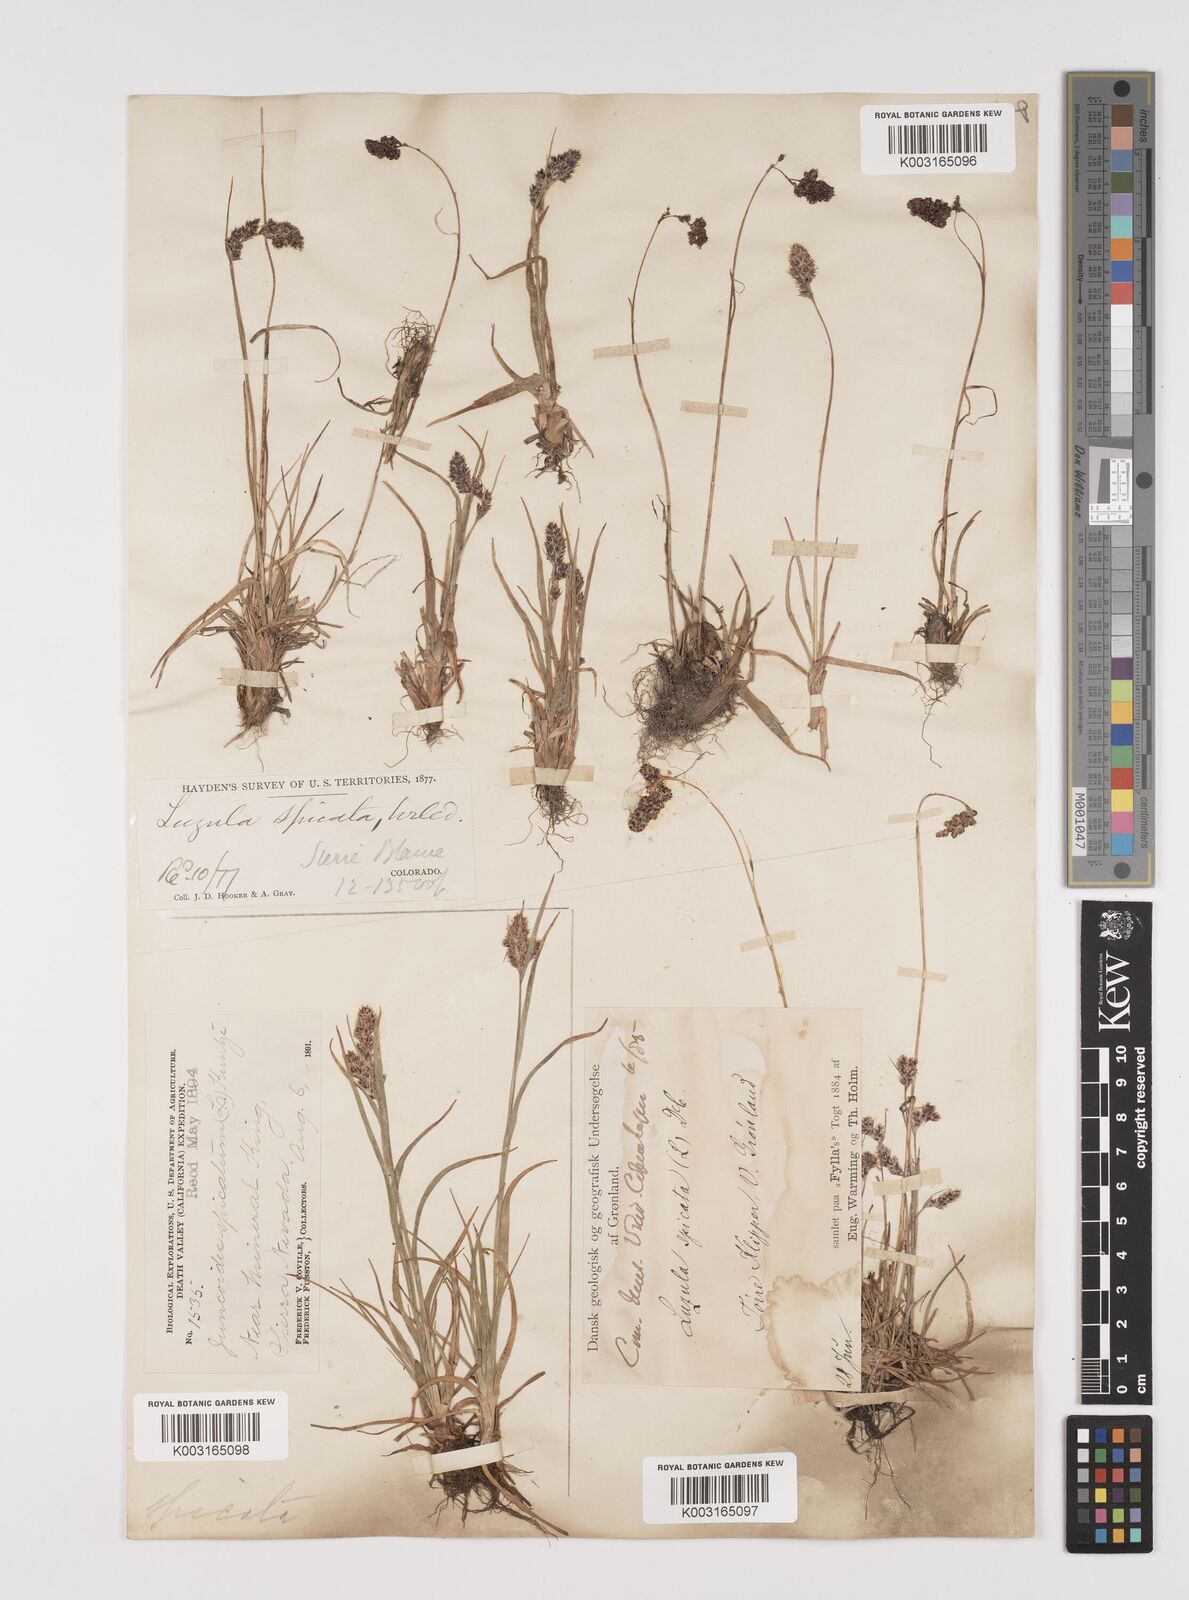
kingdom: Plantae
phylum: Tracheophyta
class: Liliopsida
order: Poales
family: Juncaceae
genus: Luzula
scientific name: Luzula spicata
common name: Spiked wood-rush
